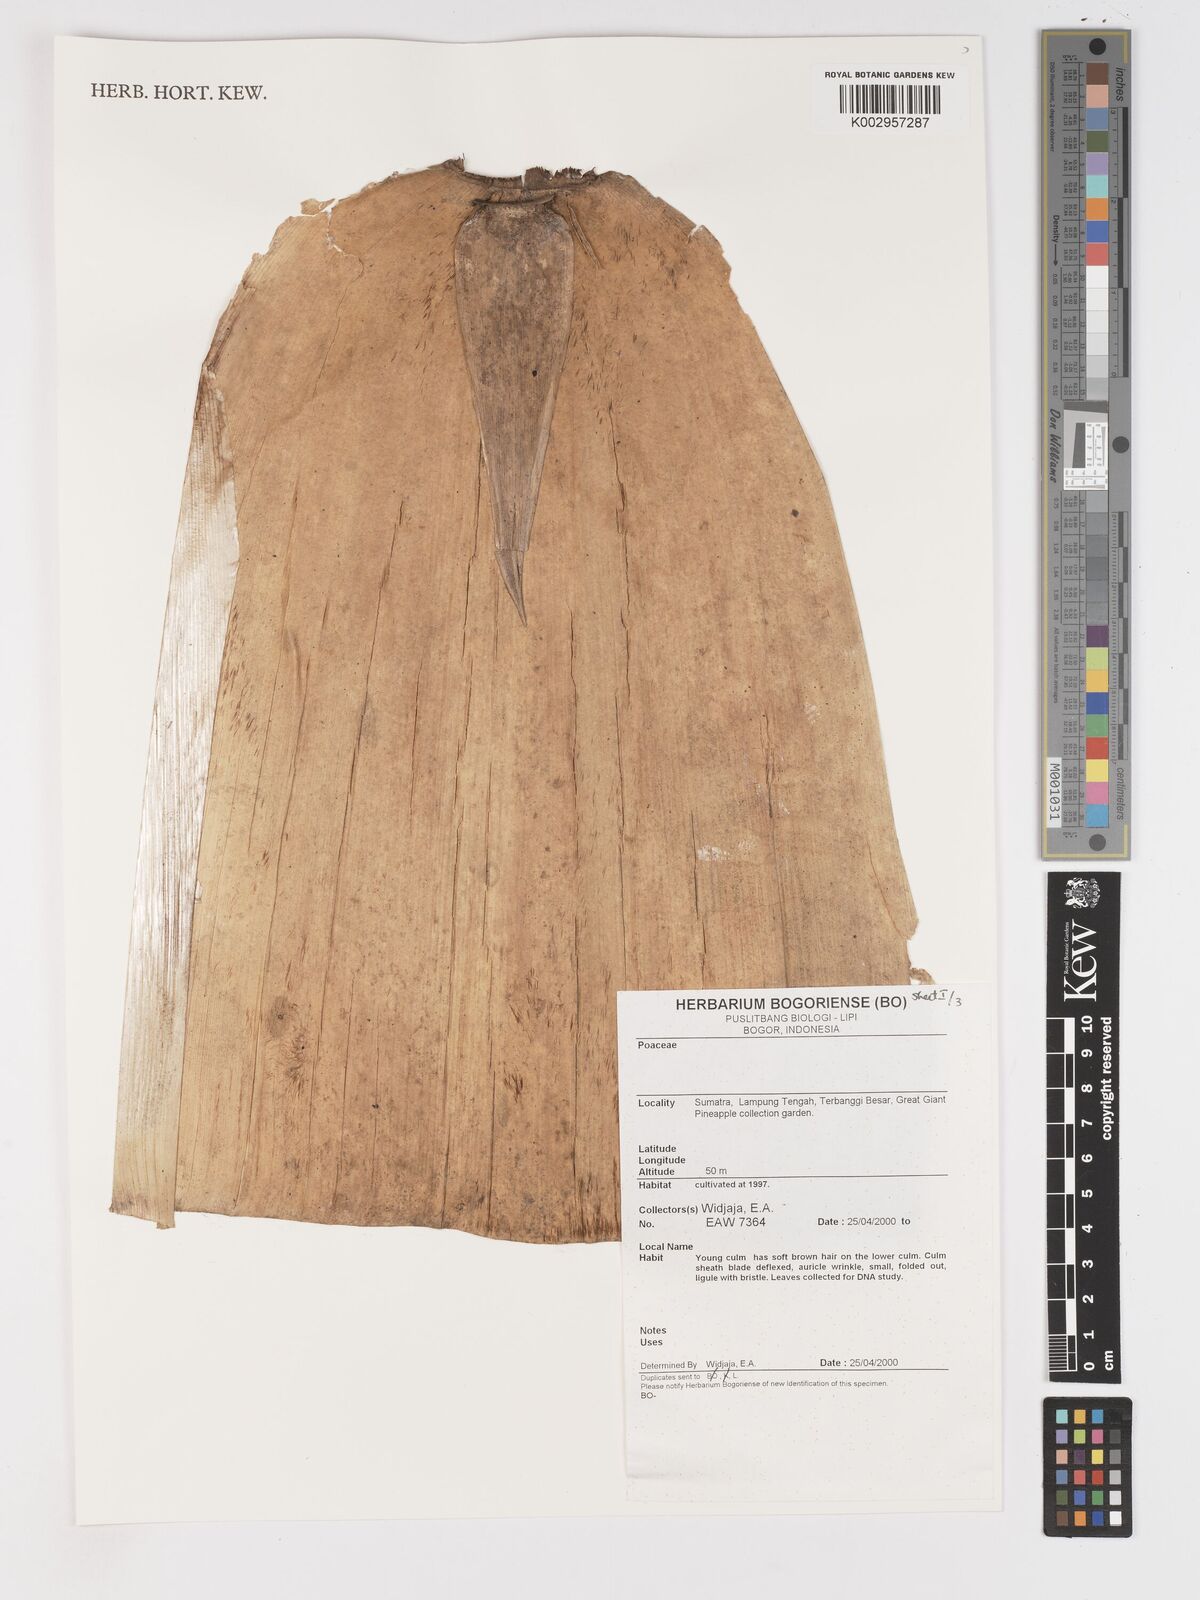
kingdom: Plantae
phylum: Tracheophyta
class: Liliopsida
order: Poales
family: Poaceae
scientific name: Poaceae
